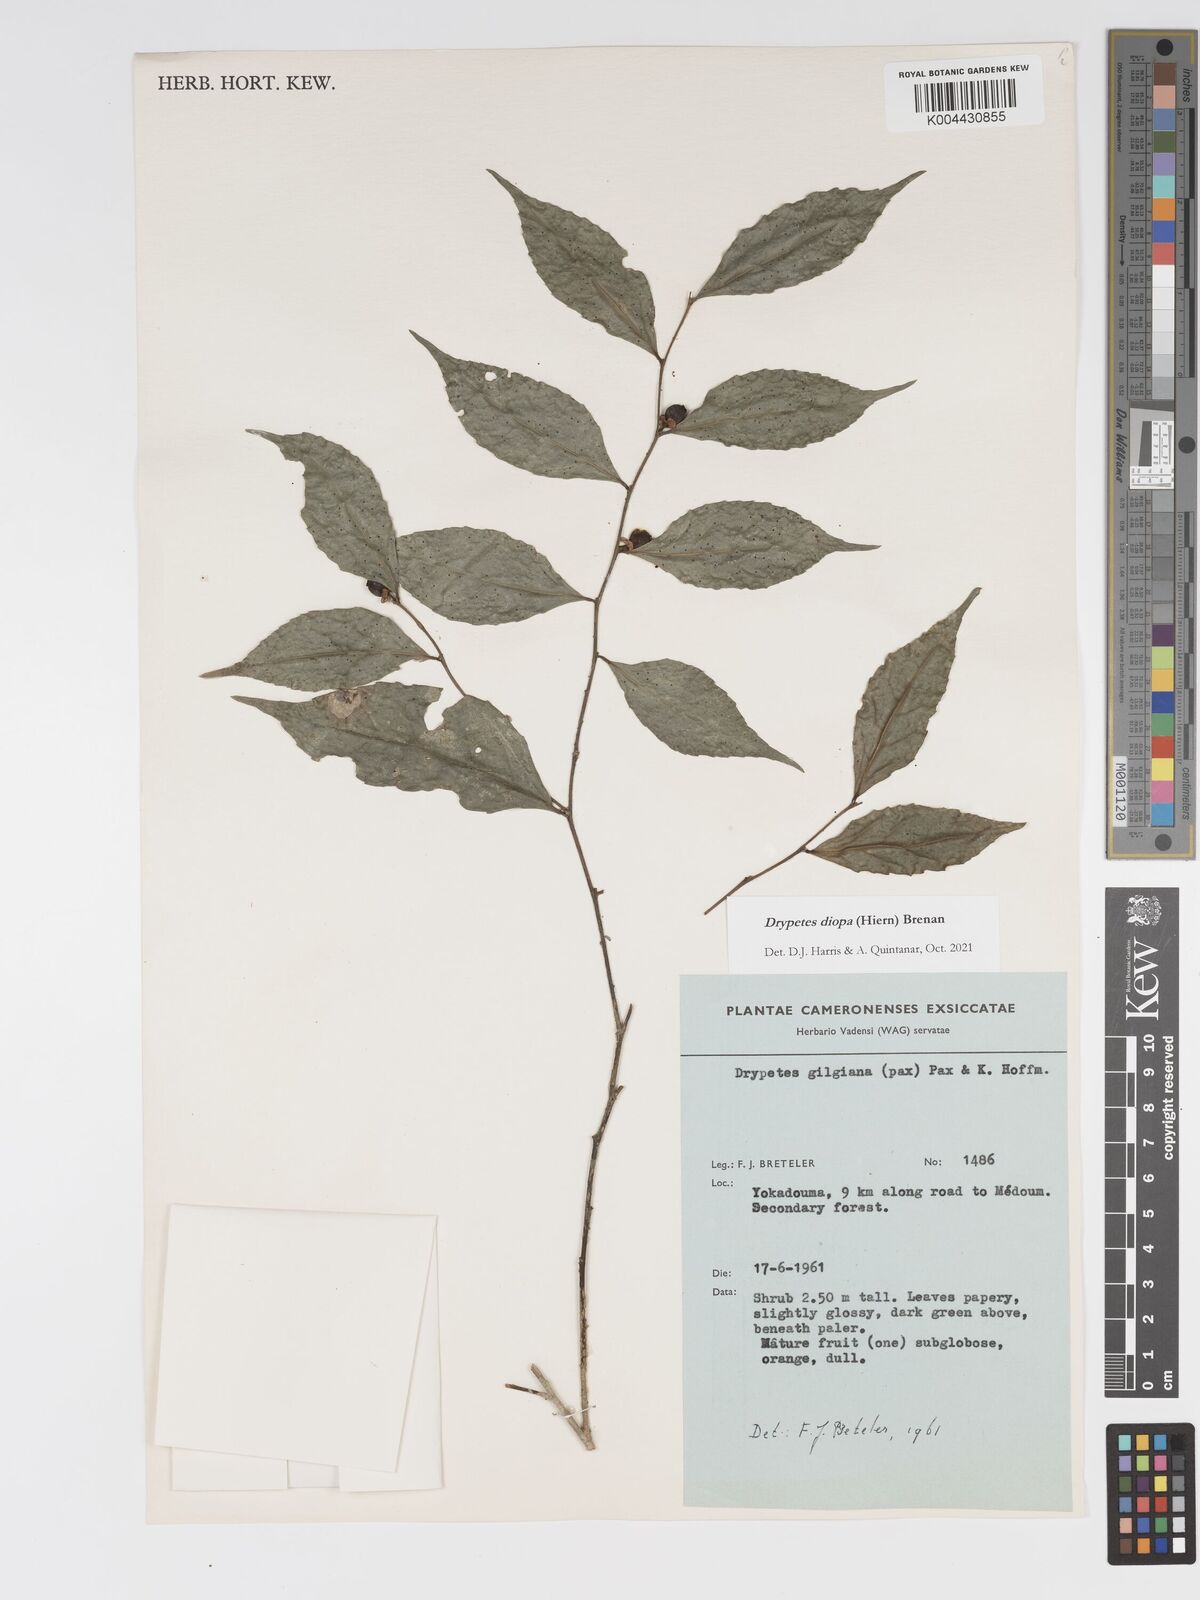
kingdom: Plantae
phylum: Tracheophyta
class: Magnoliopsida
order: Malpighiales
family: Putranjivaceae
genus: Drypetes
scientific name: Drypetes diopa
